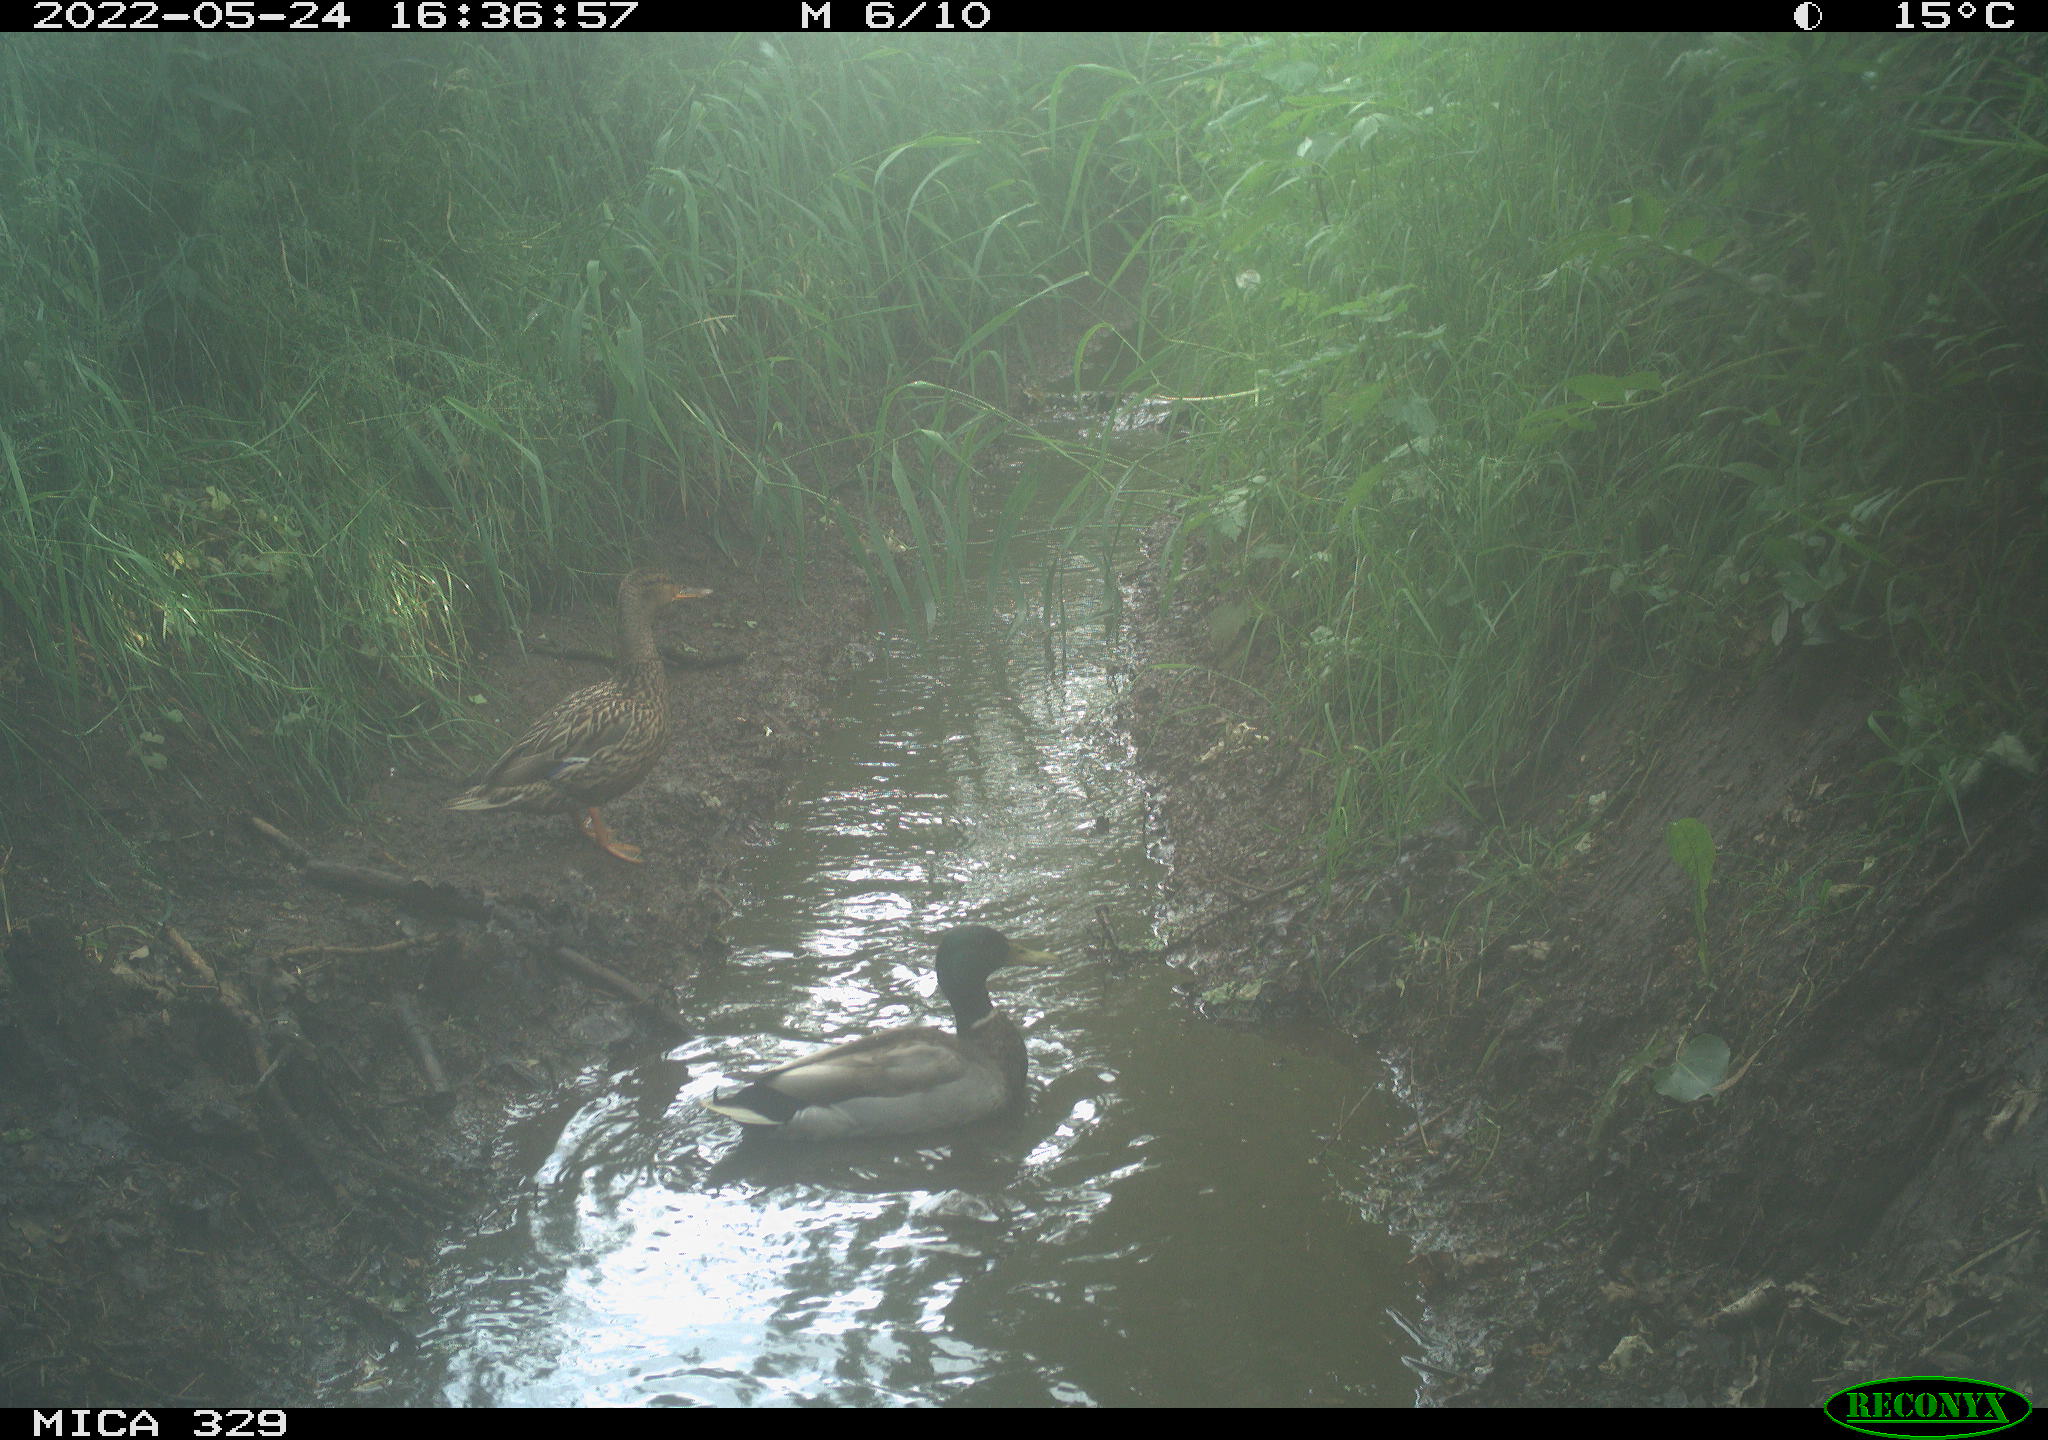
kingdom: Animalia
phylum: Chordata
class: Aves
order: Anseriformes
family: Anatidae
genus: Anas
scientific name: Anas platyrhynchos
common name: Mallard
